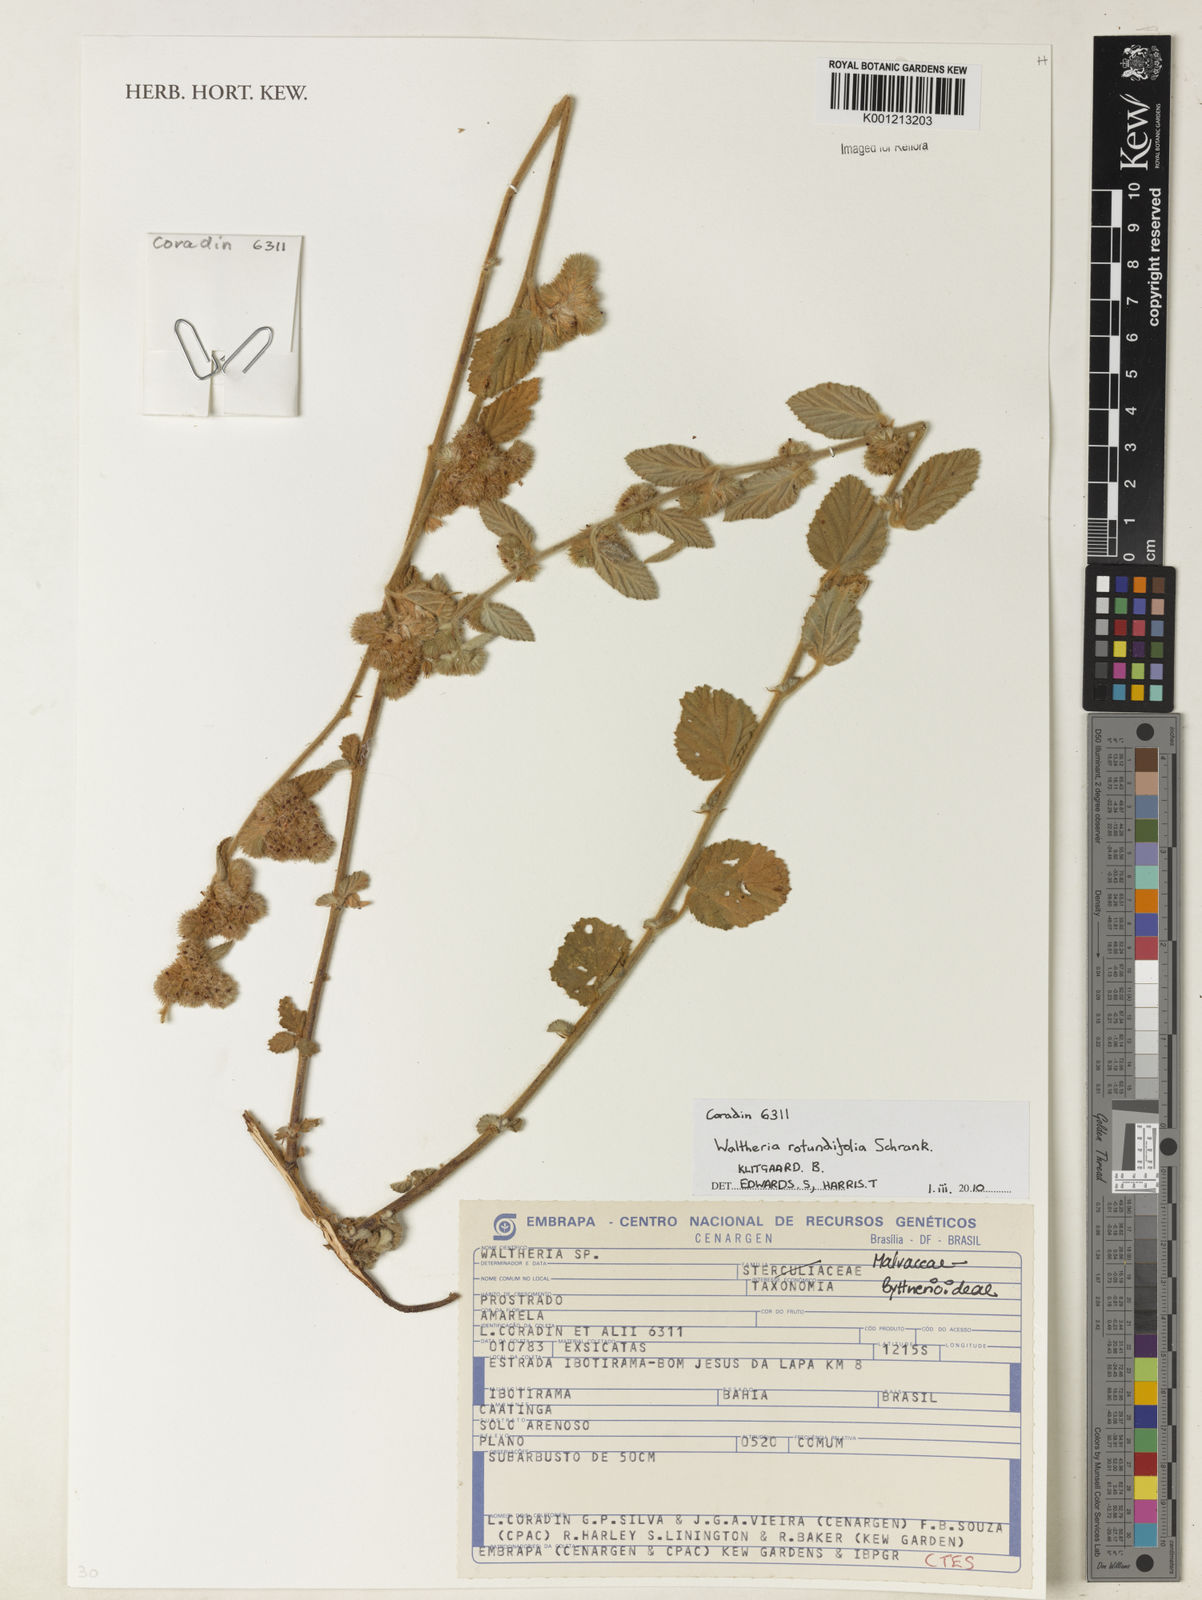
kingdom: Plantae
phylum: Tracheophyta
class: Magnoliopsida
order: Malvales
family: Malvaceae
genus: Waltheria
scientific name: Waltheria rotundifolia
